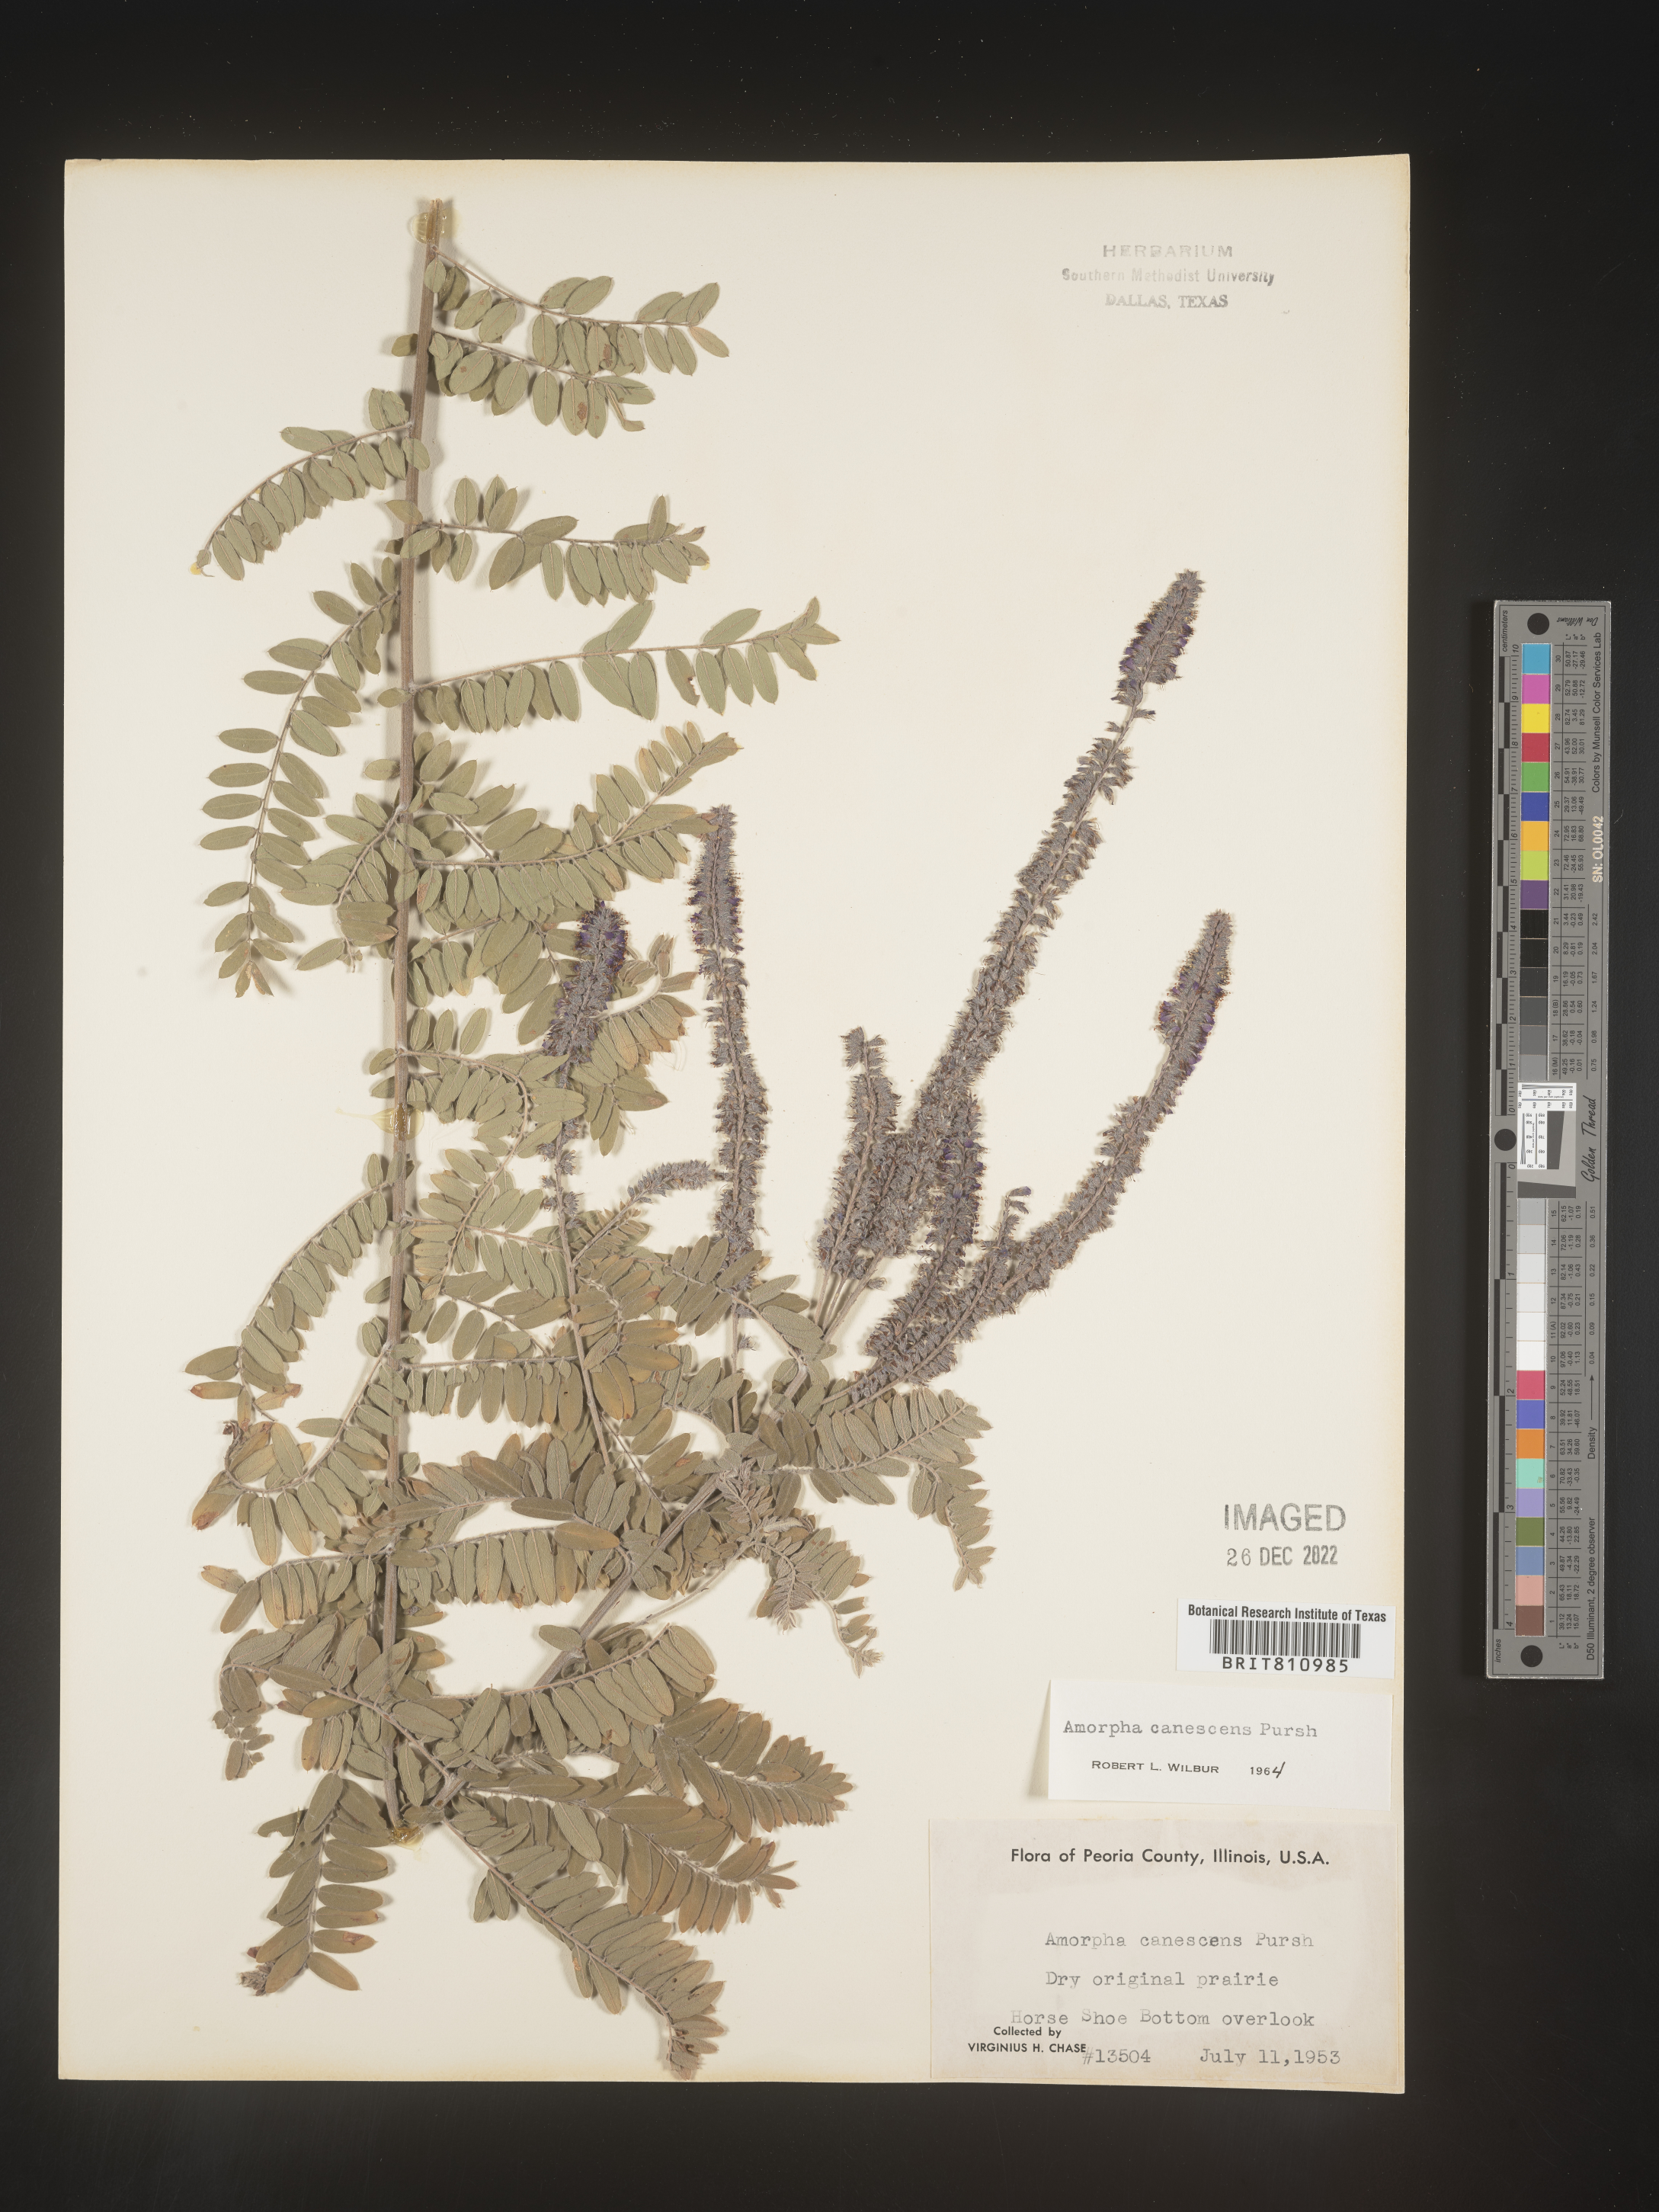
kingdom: Plantae
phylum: Tracheophyta
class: Magnoliopsida
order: Fabales
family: Fabaceae
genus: Amorpha
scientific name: Amorpha canescens
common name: Leadplant
